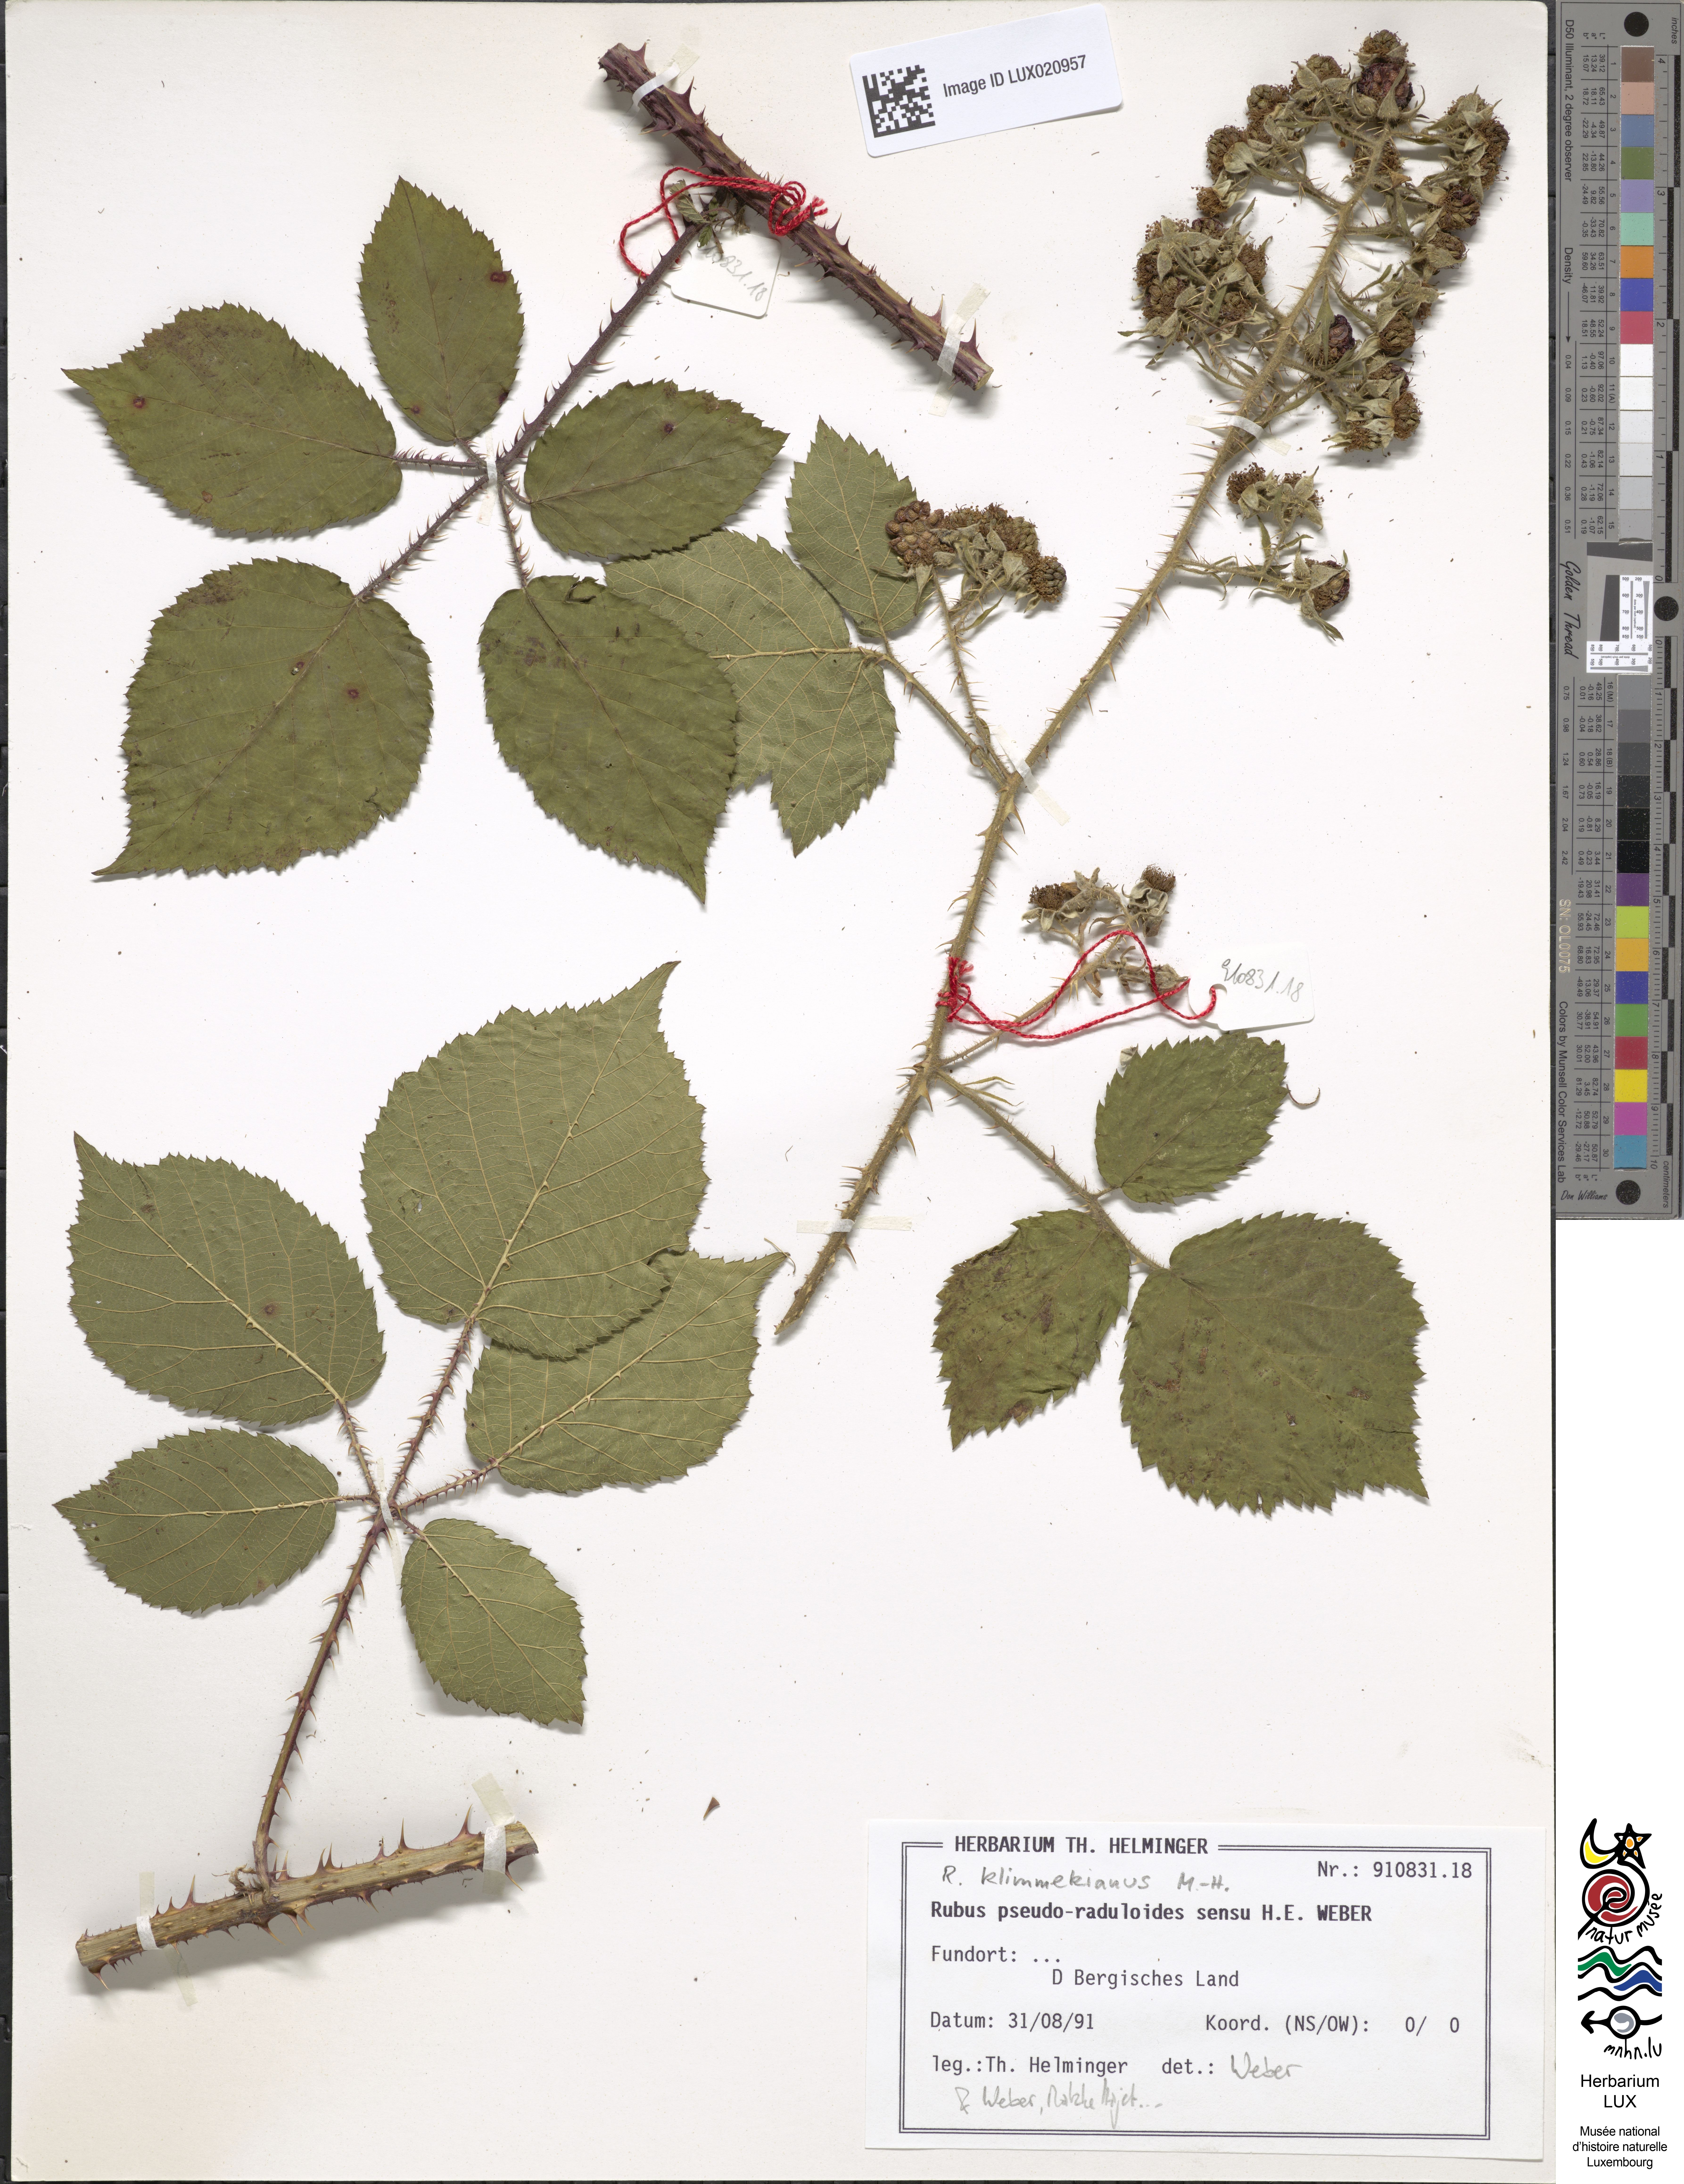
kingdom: Plantae
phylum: Tracheophyta
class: Magnoliopsida
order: Rosales
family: Rosaceae
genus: Rubus
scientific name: Rubus klimmekianus
